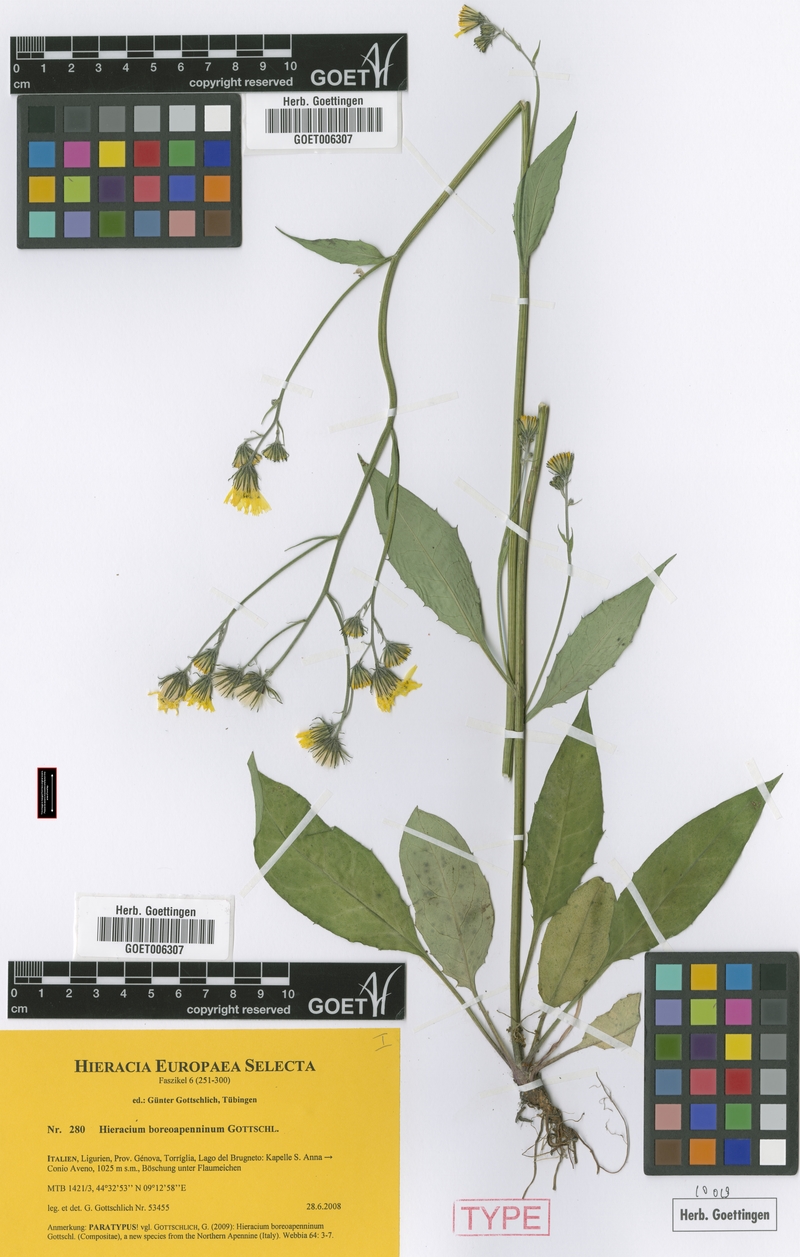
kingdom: Plantae
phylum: Tracheophyta
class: Magnoliopsida
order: Asterales
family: Asteraceae
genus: Hieracium
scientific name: Hieracium boreoapenninum
